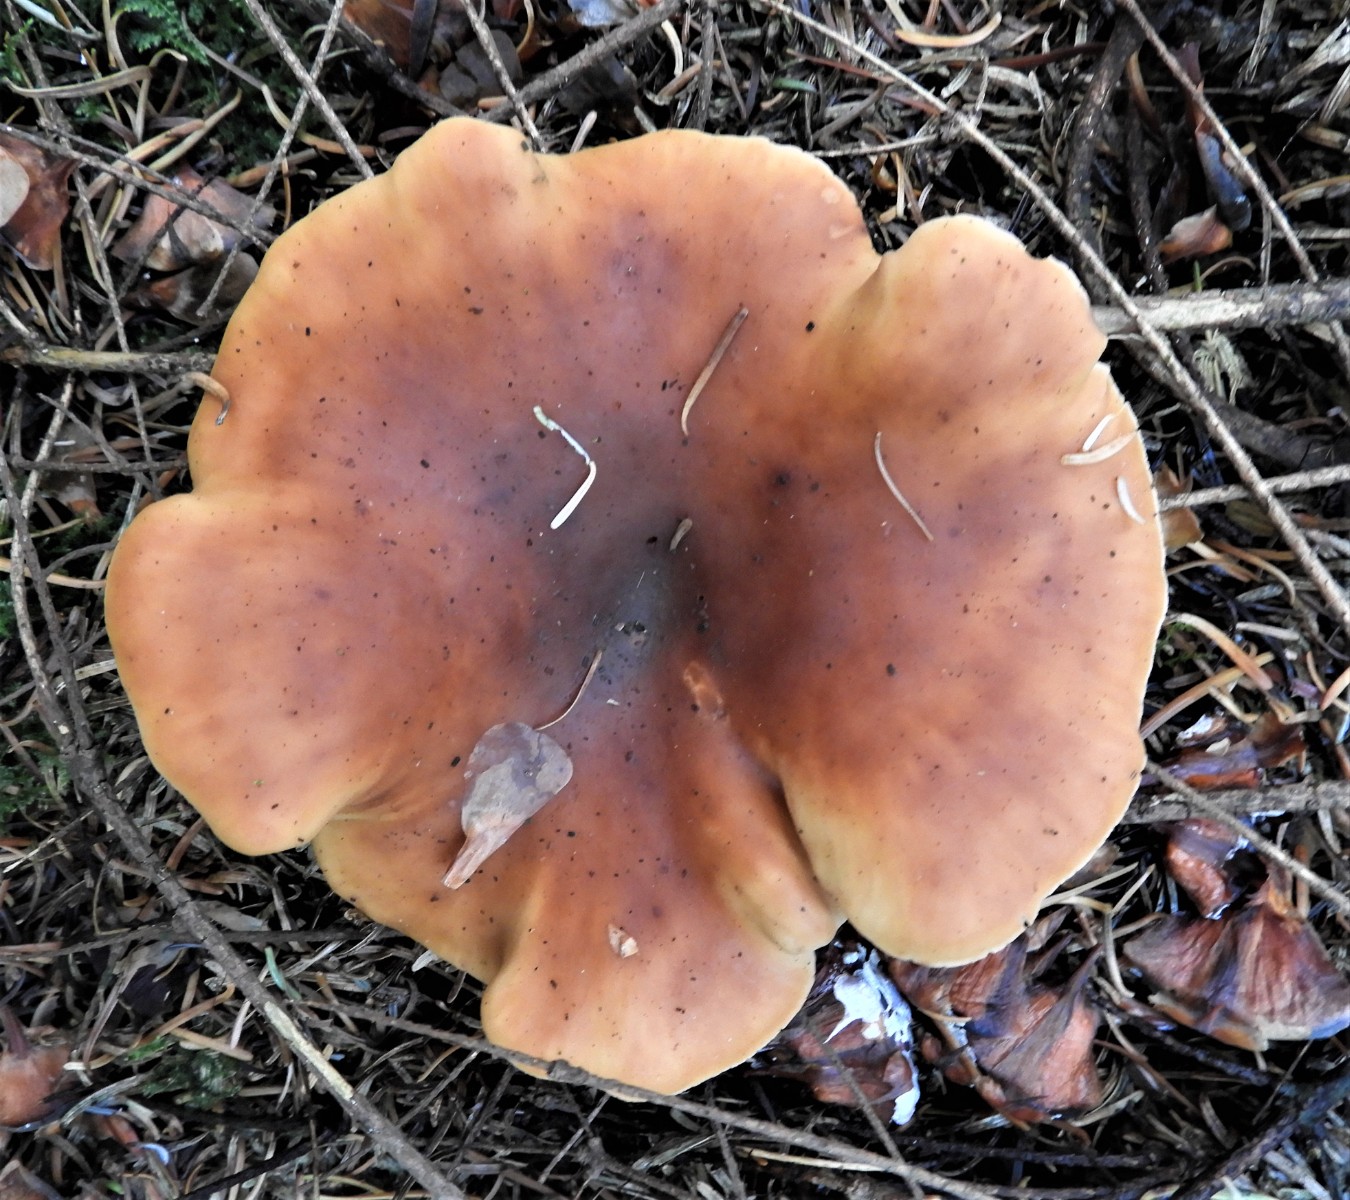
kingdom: Fungi
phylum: Basidiomycota
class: Agaricomycetes
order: Agaricales
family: Tricholomataceae
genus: Paralepista
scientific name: Paralepista flaccida
